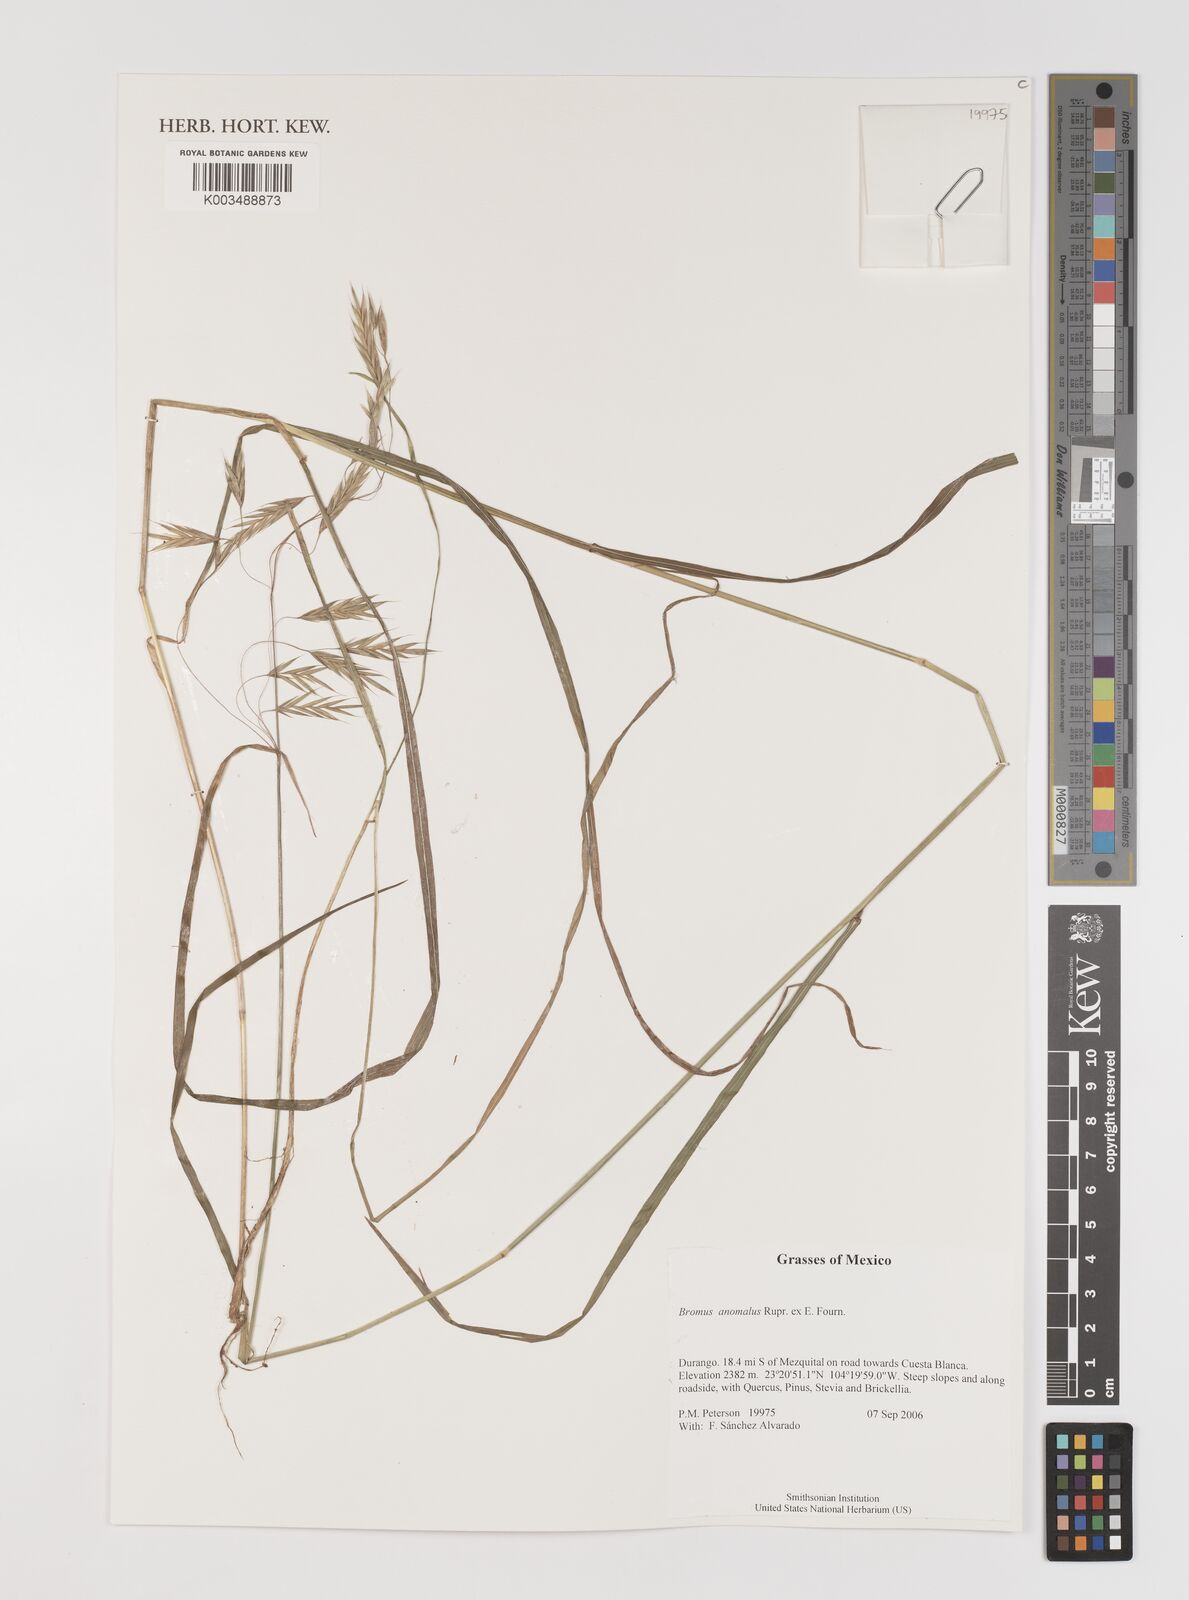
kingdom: Plantae
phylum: Tracheophyta
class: Liliopsida
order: Poales
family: Poaceae
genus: Bromus
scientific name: Bromus anomalus
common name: Nodding brome
